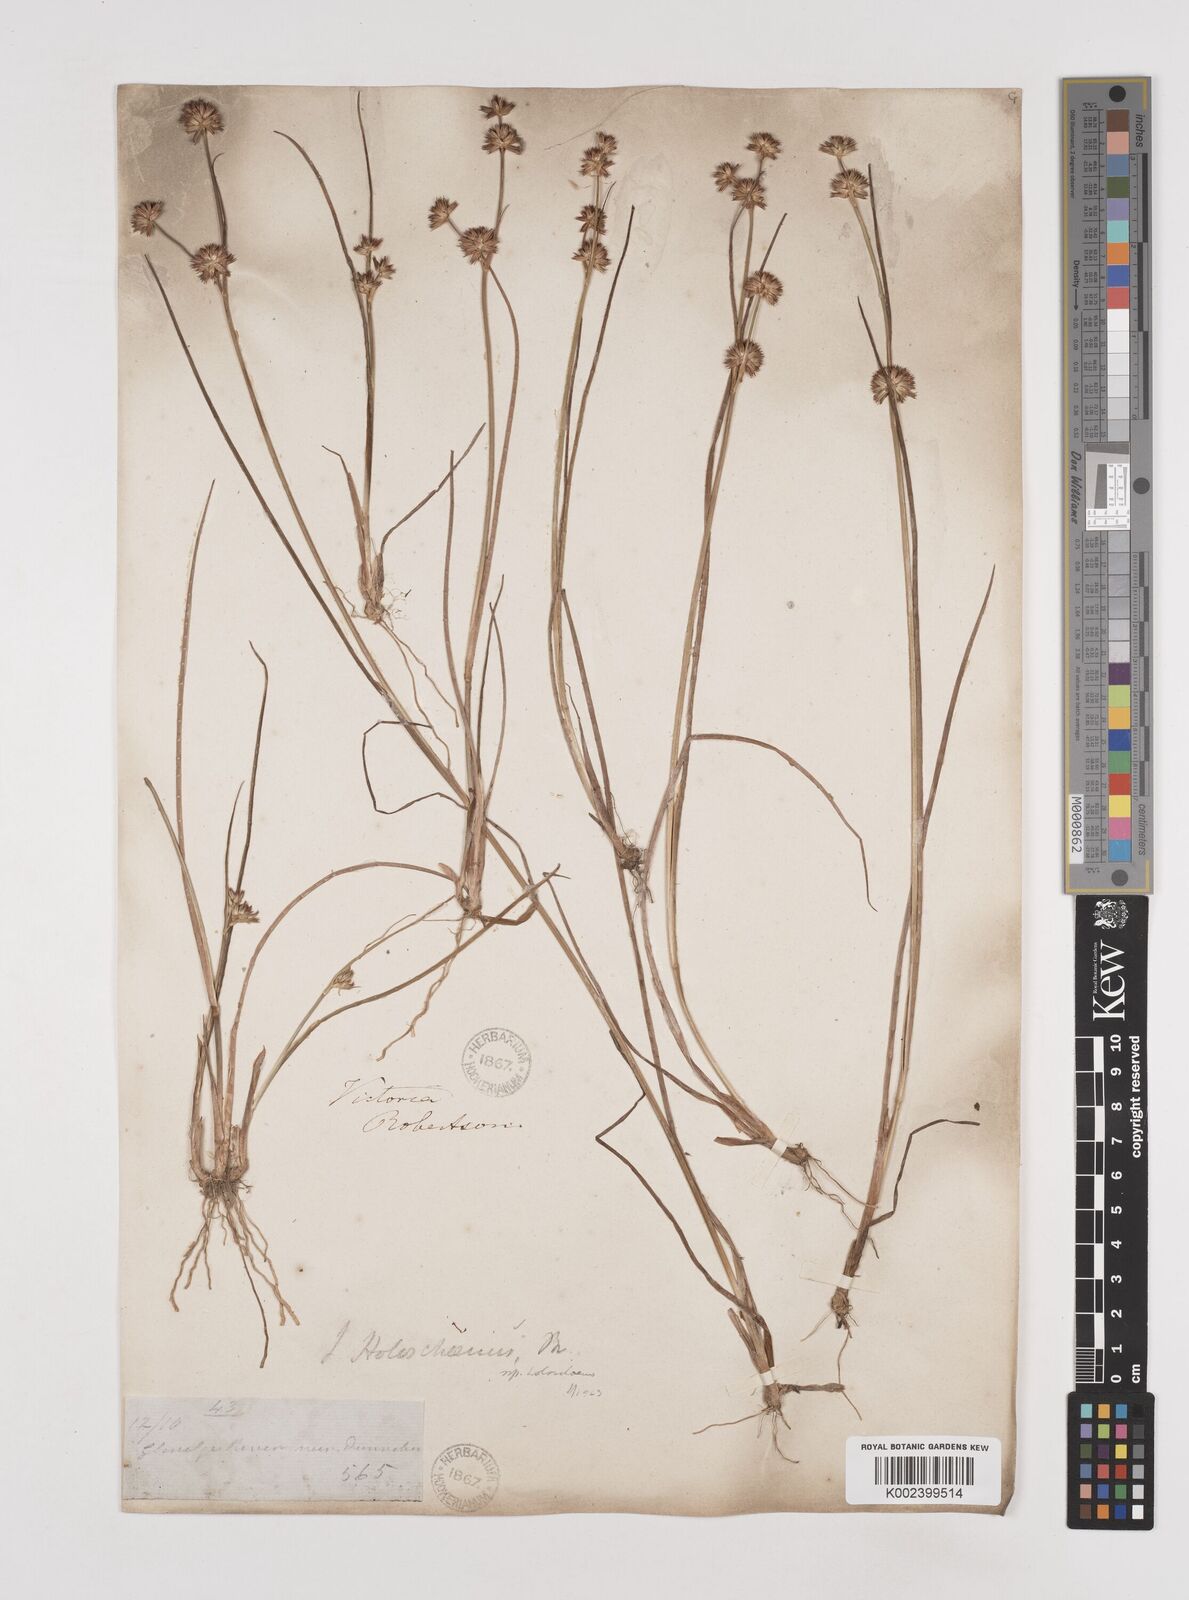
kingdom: Plantae
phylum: Tracheophyta
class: Liliopsida
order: Poales
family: Juncaceae
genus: Juncus
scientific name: Juncus holoschoenus
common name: Joint-leaf rush
